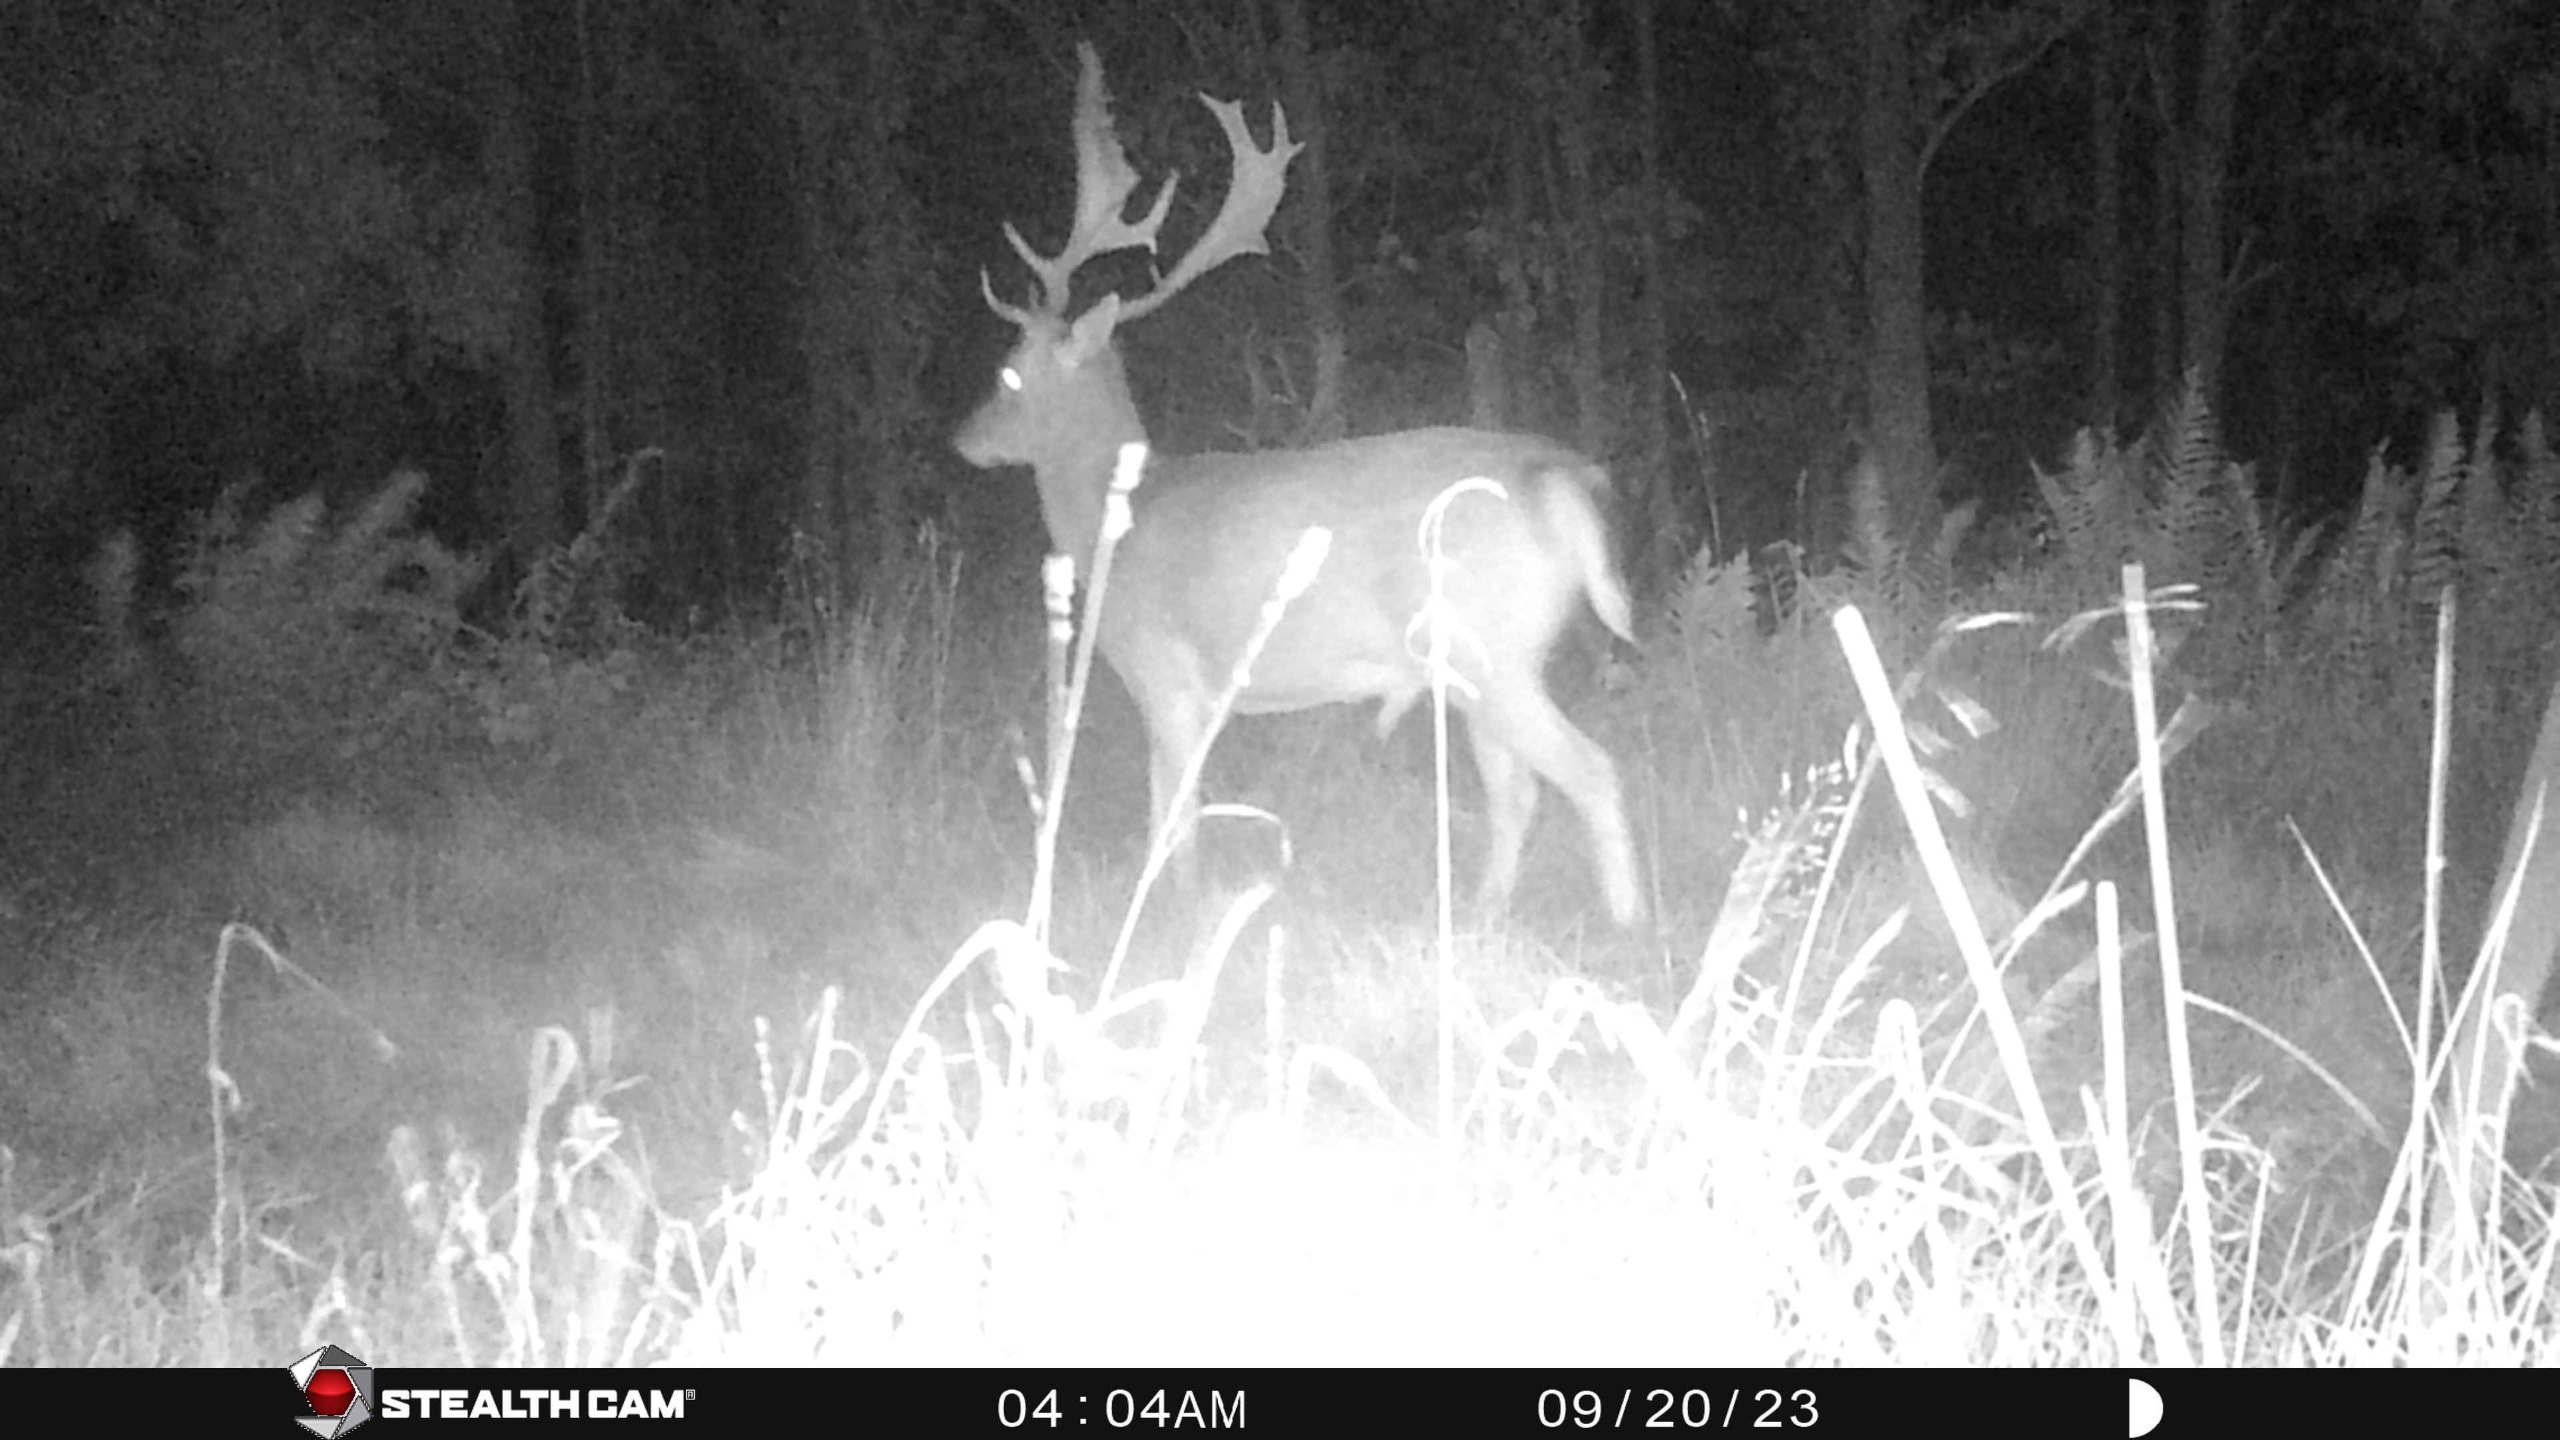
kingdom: Animalia
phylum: Chordata
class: Mammalia
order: Artiodactyla
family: Cervidae
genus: Dama
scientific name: Dama dama
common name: Dådyr
